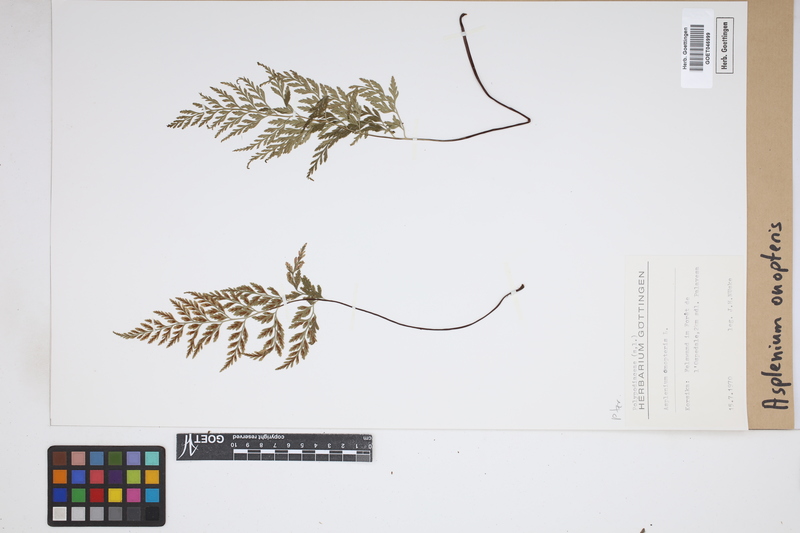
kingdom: Plantae
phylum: Tracheophyta
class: Polypodiopsida
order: Polypodiales
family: Aspleniaceae
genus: Asplenium
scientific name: Asplenium onopteris
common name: Irish spleenwort
